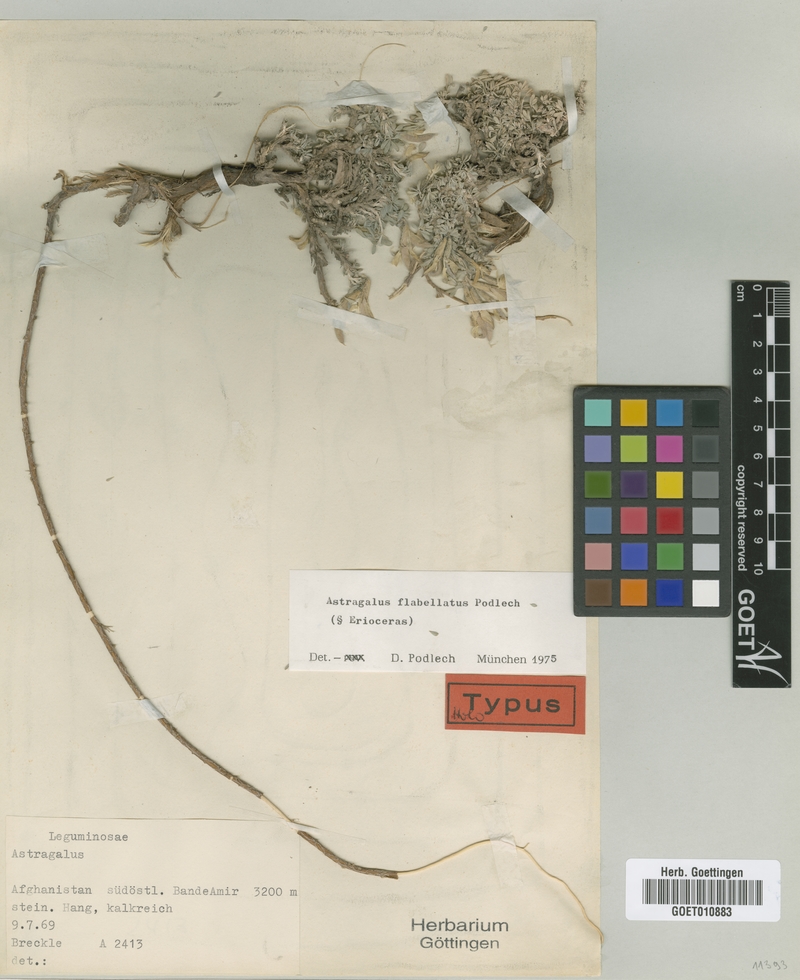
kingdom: Plantae
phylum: Tracheophyta
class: Magnoliopsida
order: Fabales
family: Fabaceae
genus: Astragalus
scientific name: Astragalus flabellatus
